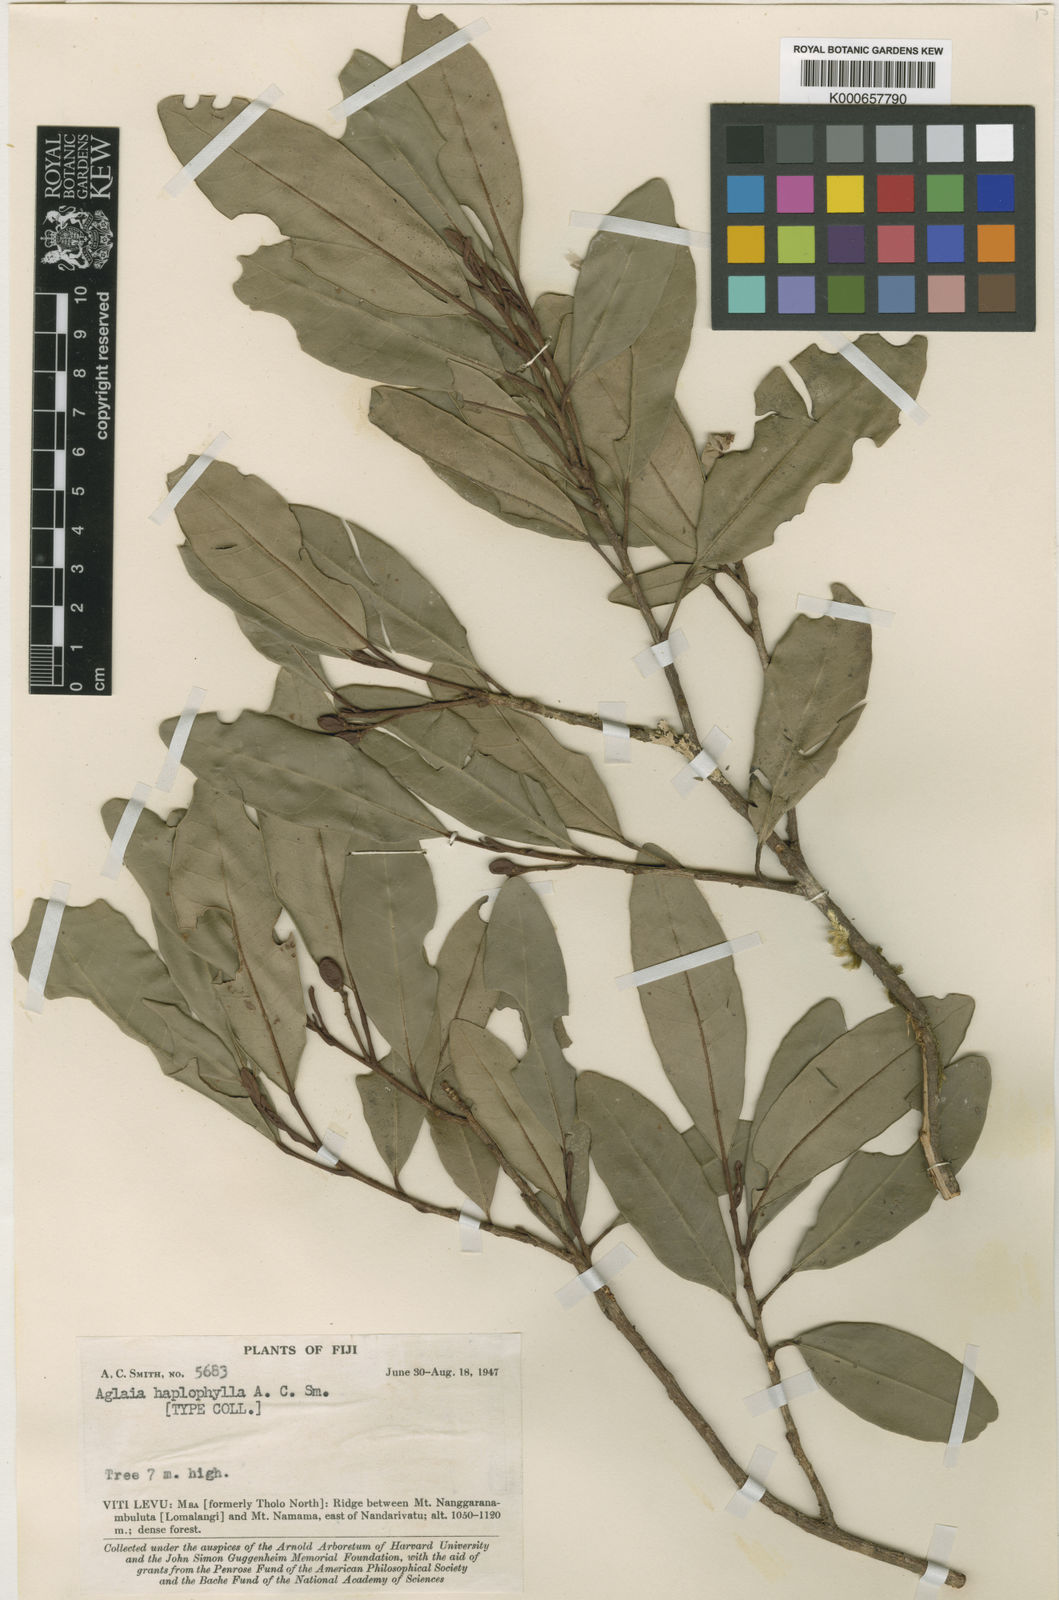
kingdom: Plantae
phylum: Tracheophyta
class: Magnoliopsida
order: Sapindales
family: Meliaceae
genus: Aglaia
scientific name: Aglaia unifolia
